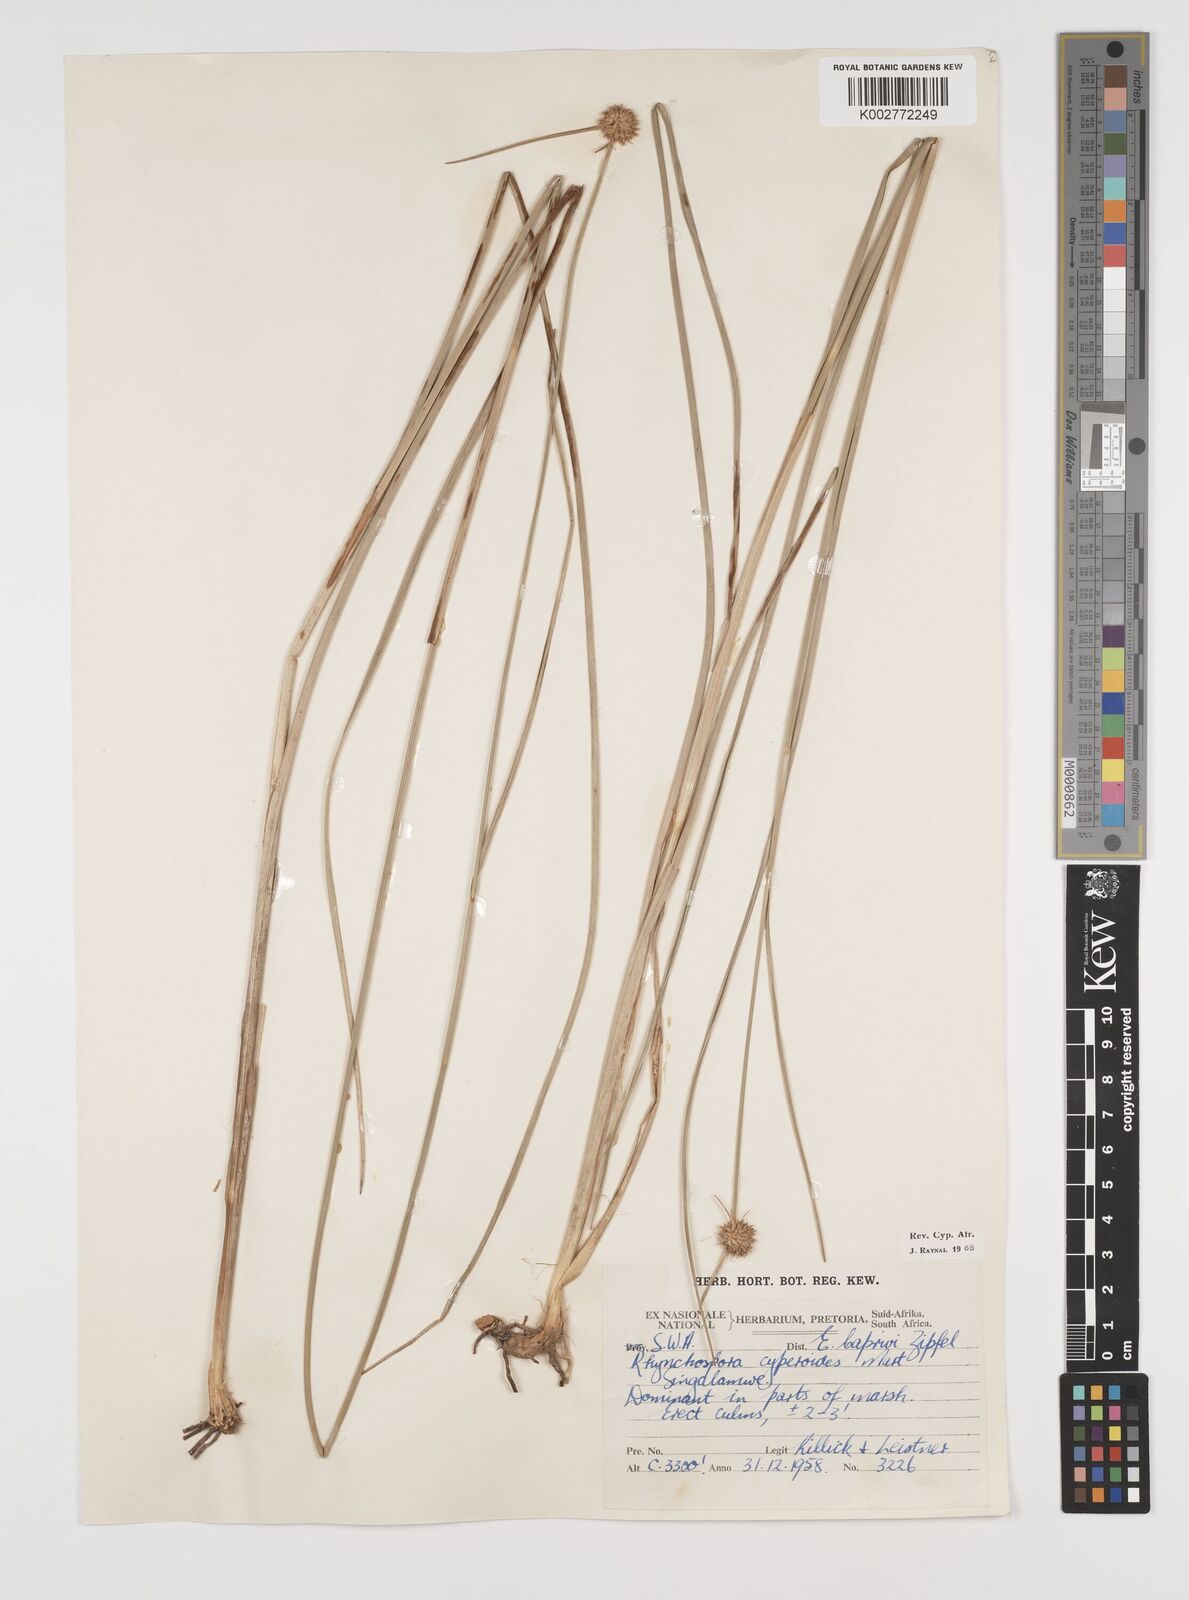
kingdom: Plantae
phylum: Tracheophyta
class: Liliopsida
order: Poales
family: Cyperaceae
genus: Rhynchospora
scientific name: Rhynchospora holoschoenoides
